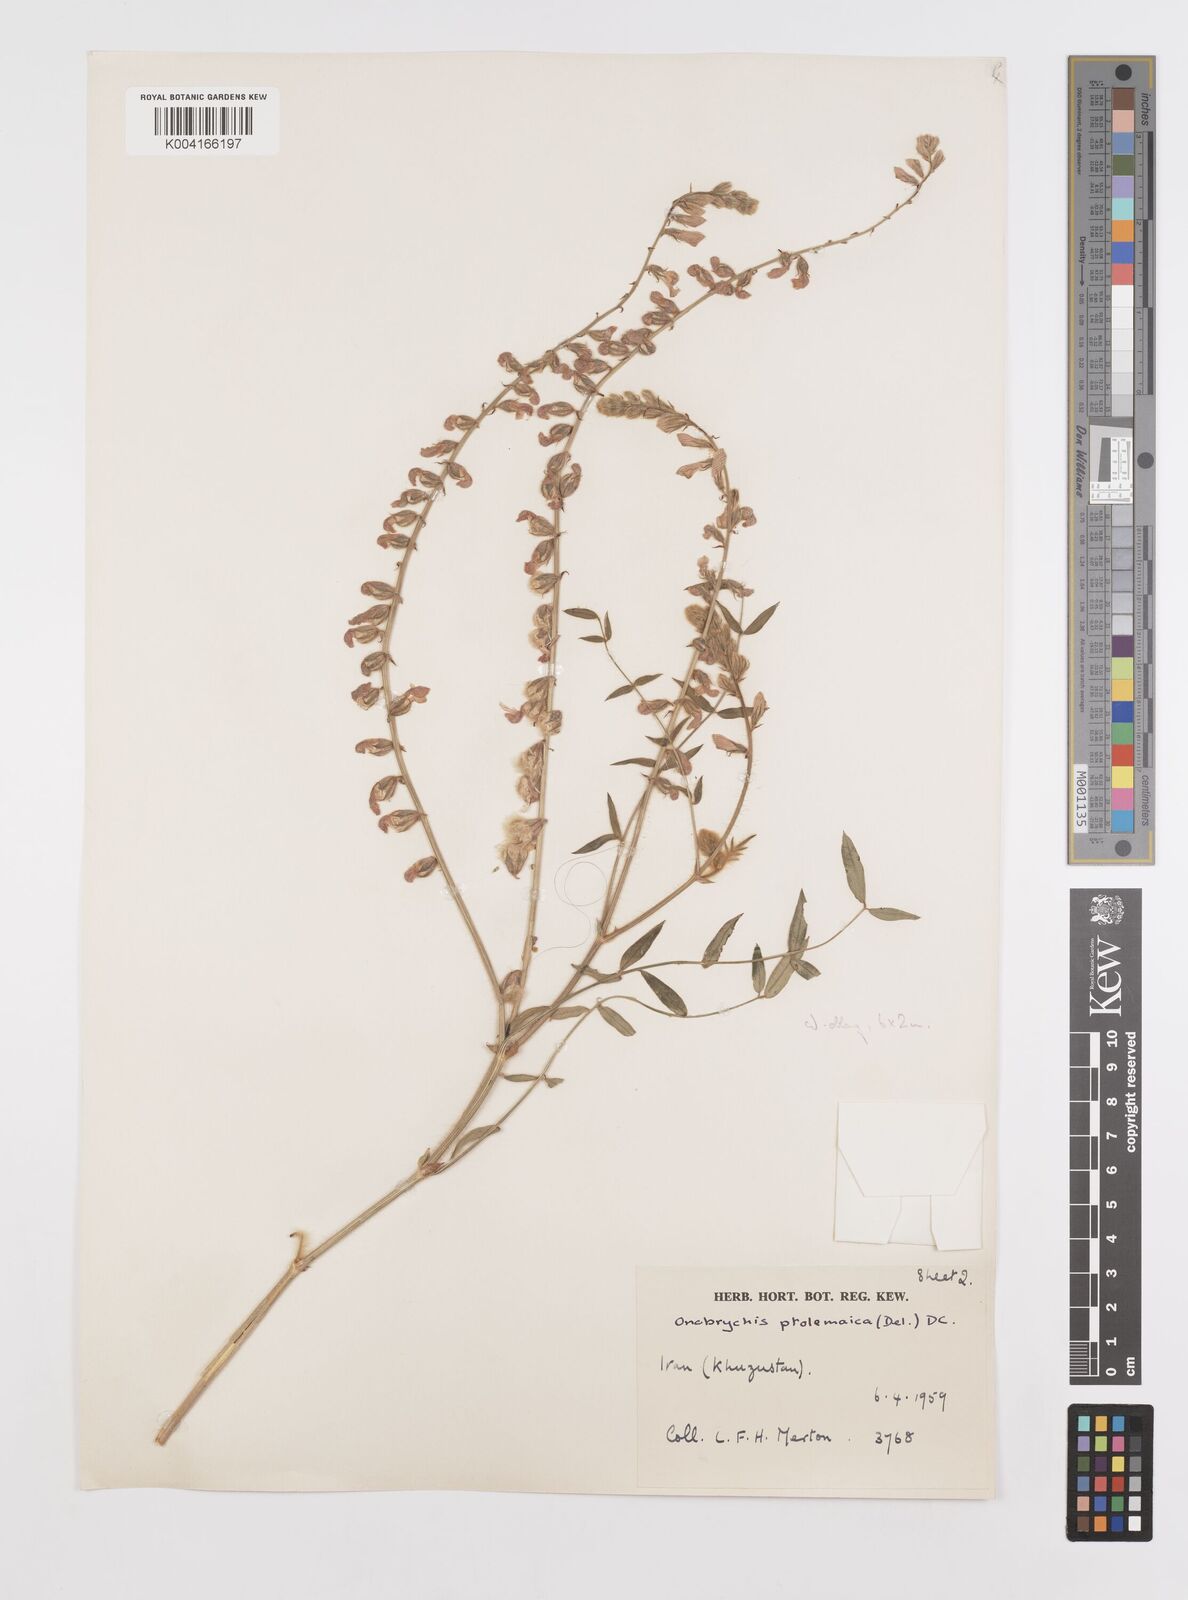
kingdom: Plantae
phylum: Tracheophyta
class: Magnoliopsida
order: Fabales
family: Fabaceae
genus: Onobrychis
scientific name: Onobrychis ptolemaica
